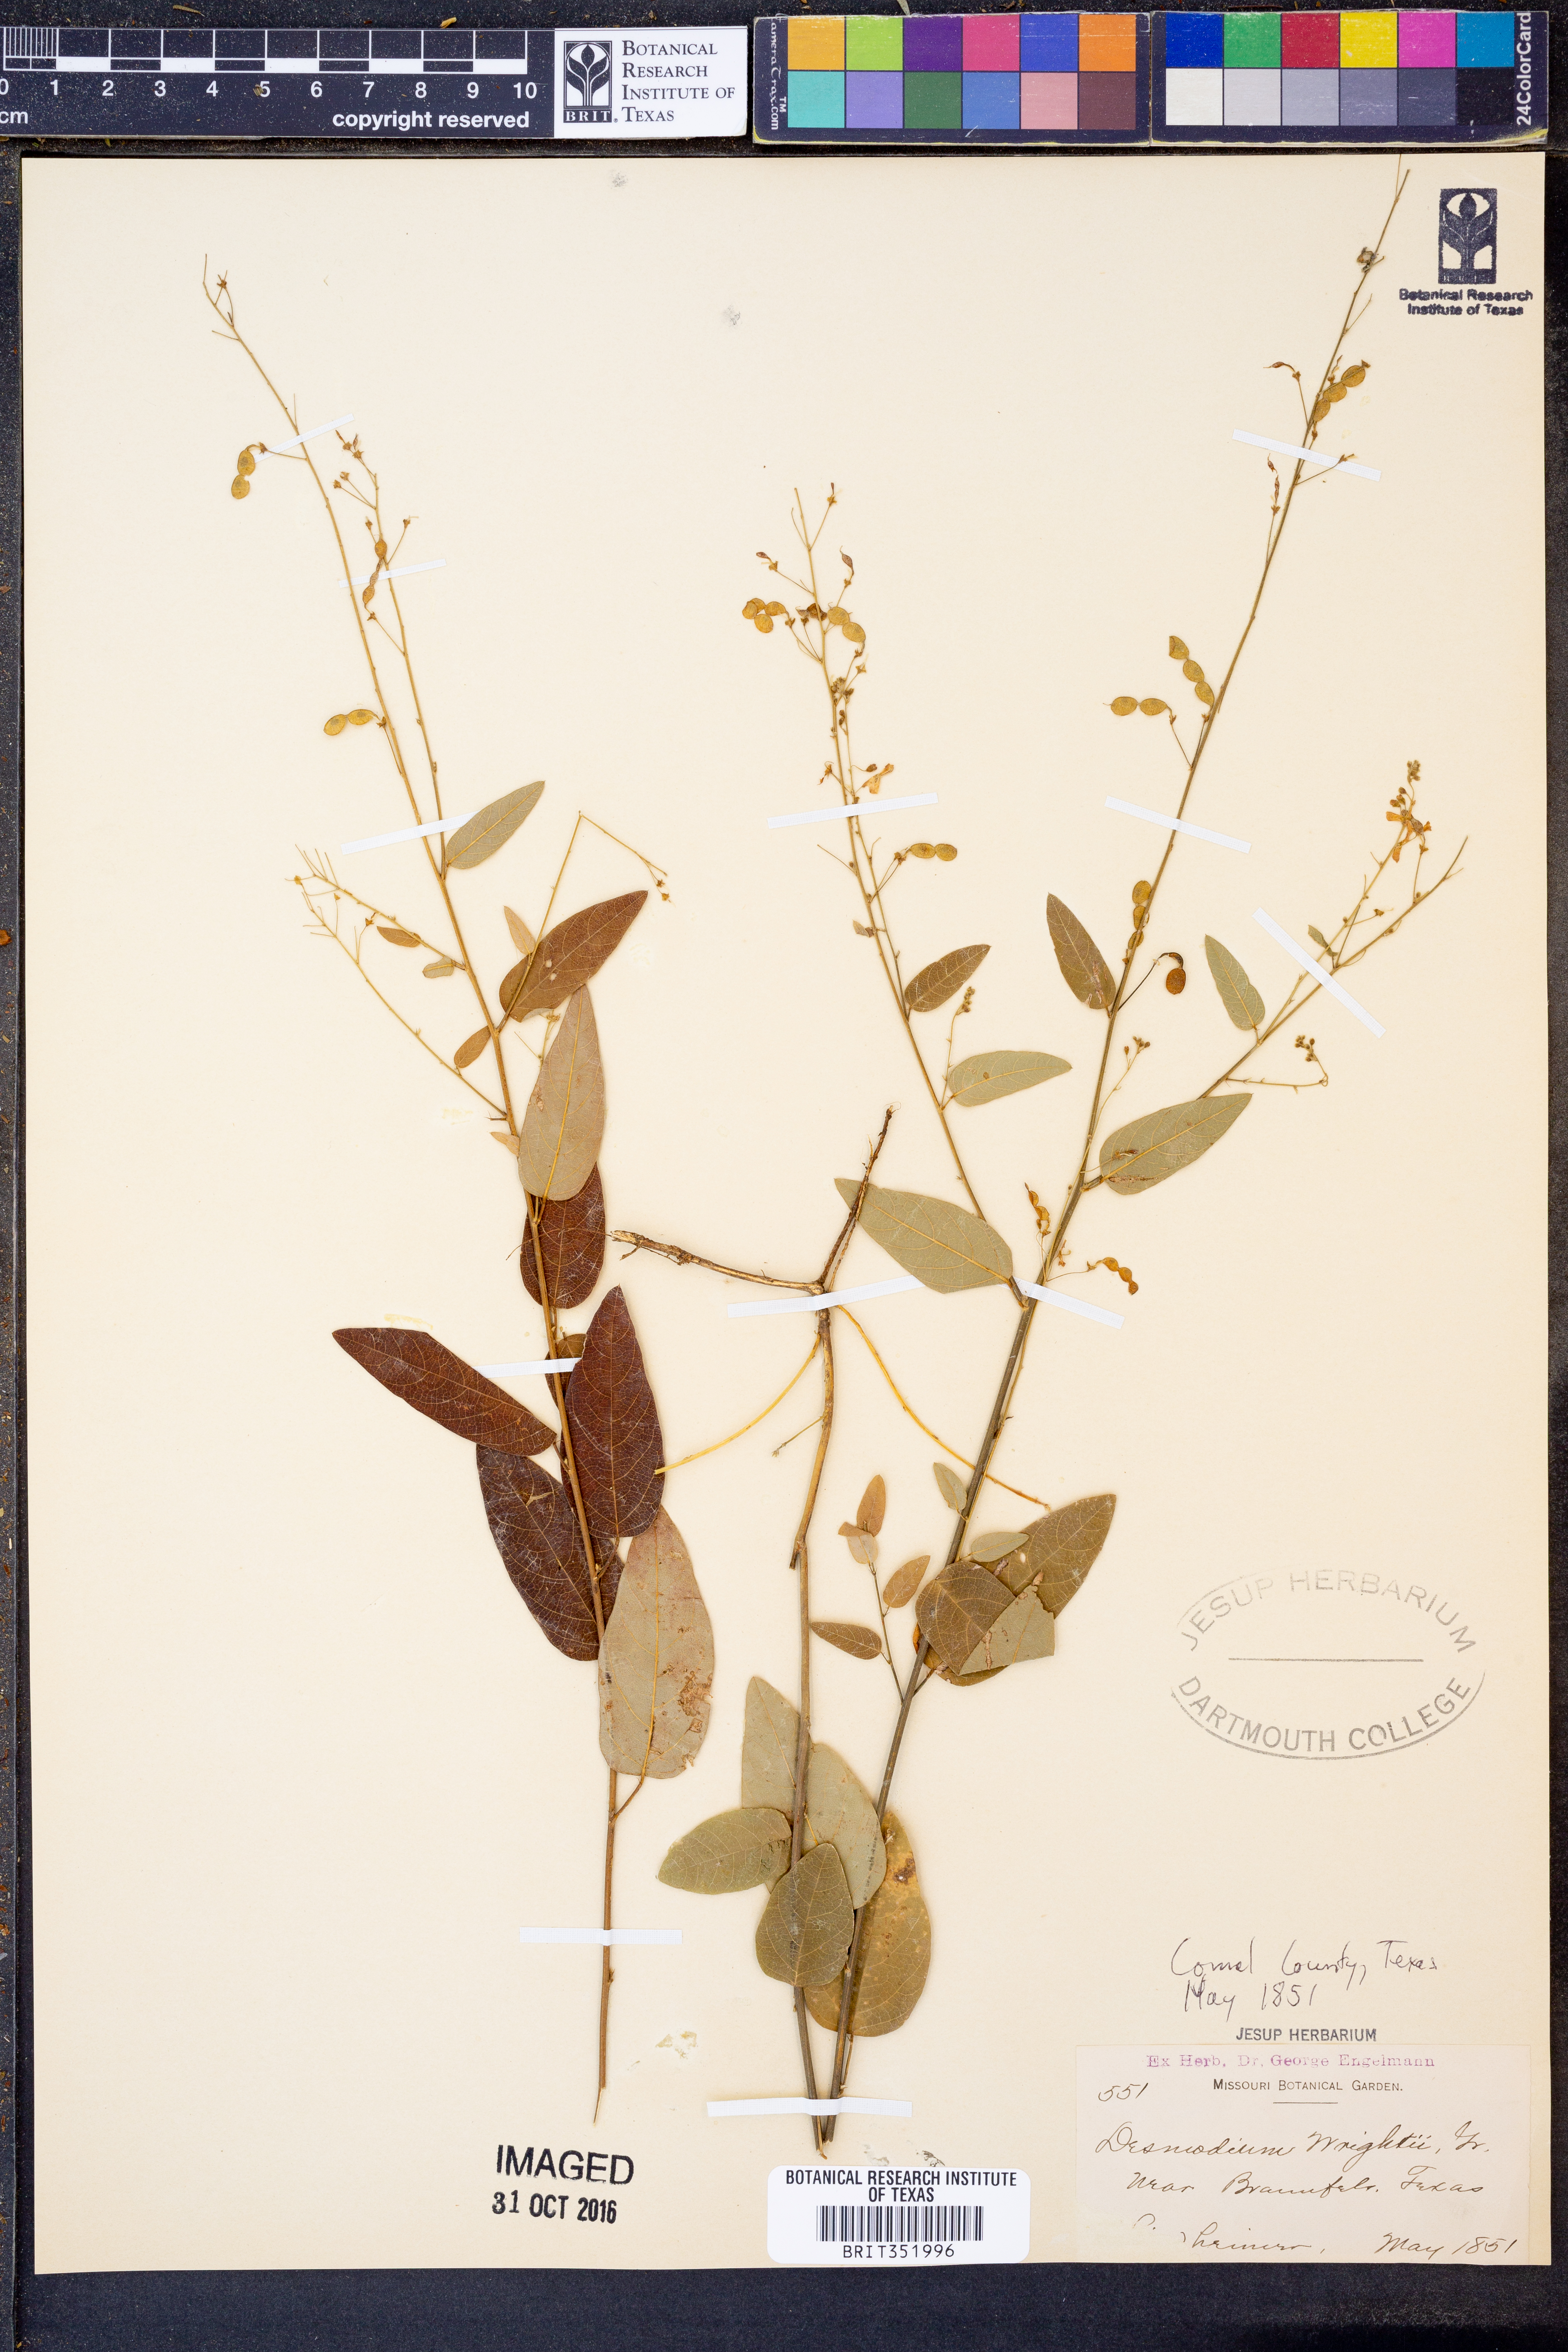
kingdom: Plantae
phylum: Tracheophyta
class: Magnoliopsida
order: Fabales
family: Fabaceae
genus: Desmodium
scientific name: Desmodium psilophyllum
